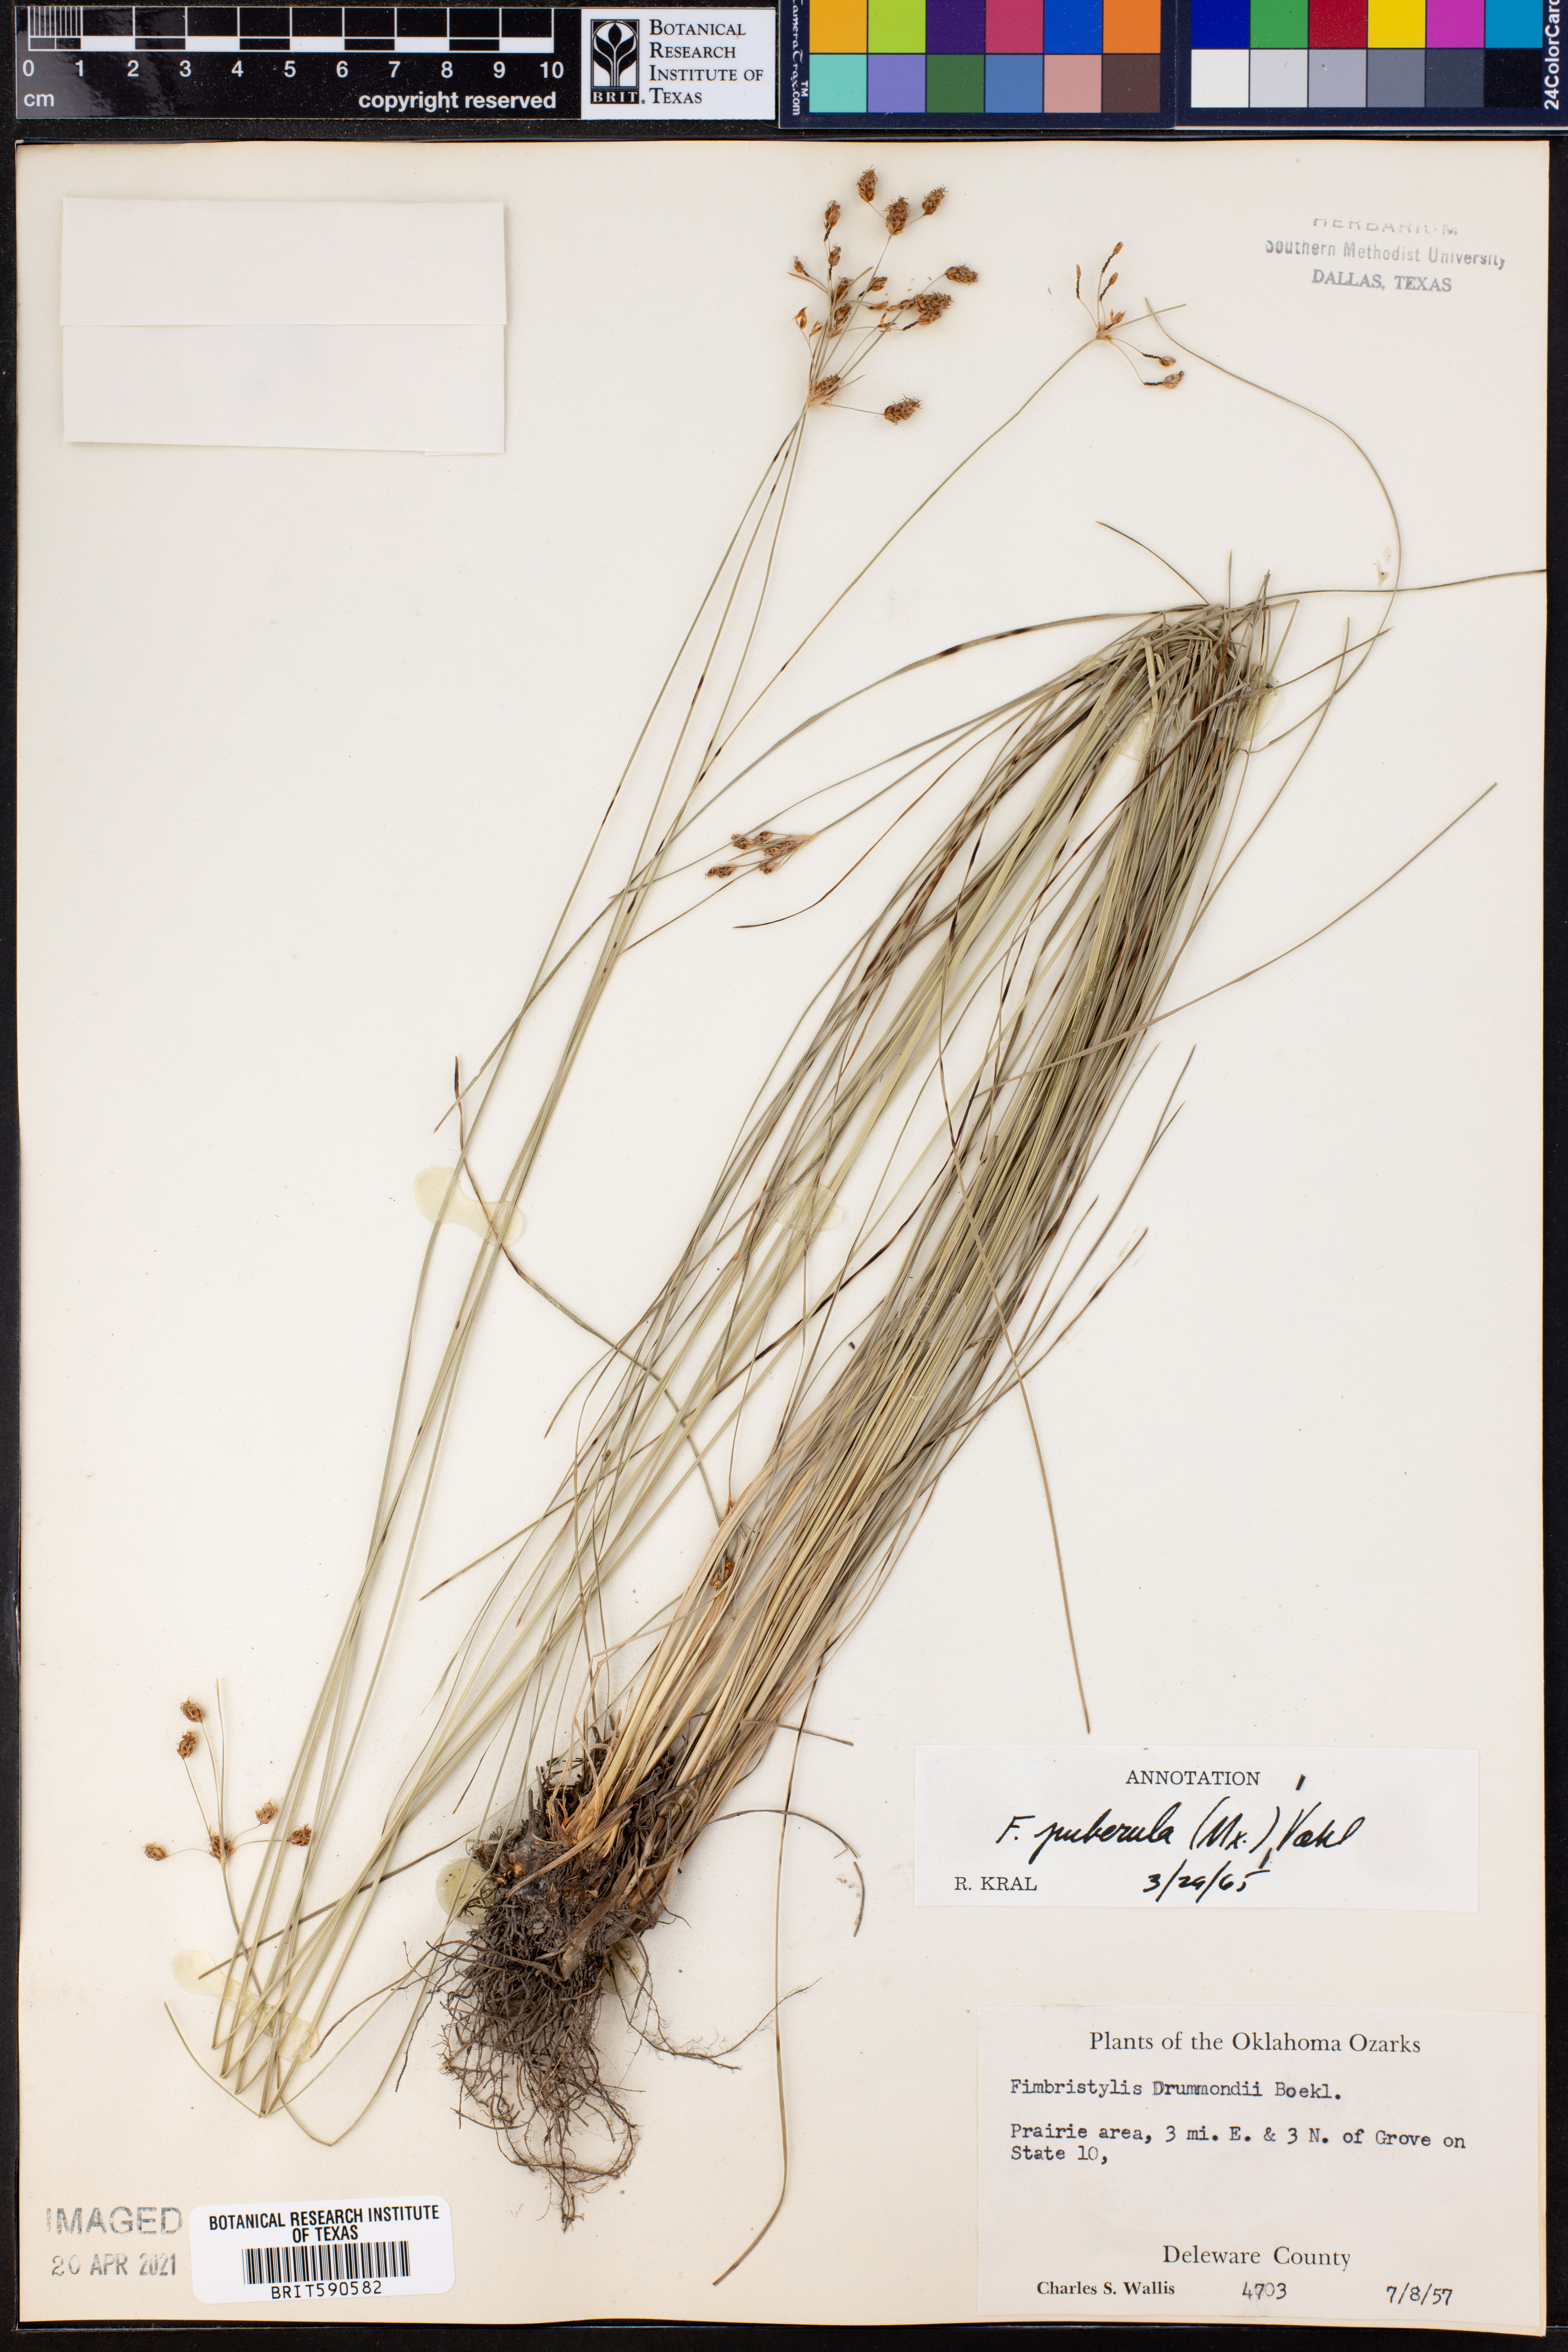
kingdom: Plantae
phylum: Tracheophyta
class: Liliopsida
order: Poales
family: Cyperaceae
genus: Fimbristylis
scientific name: Fimbristylis puberula
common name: Hairy fimbristylis
